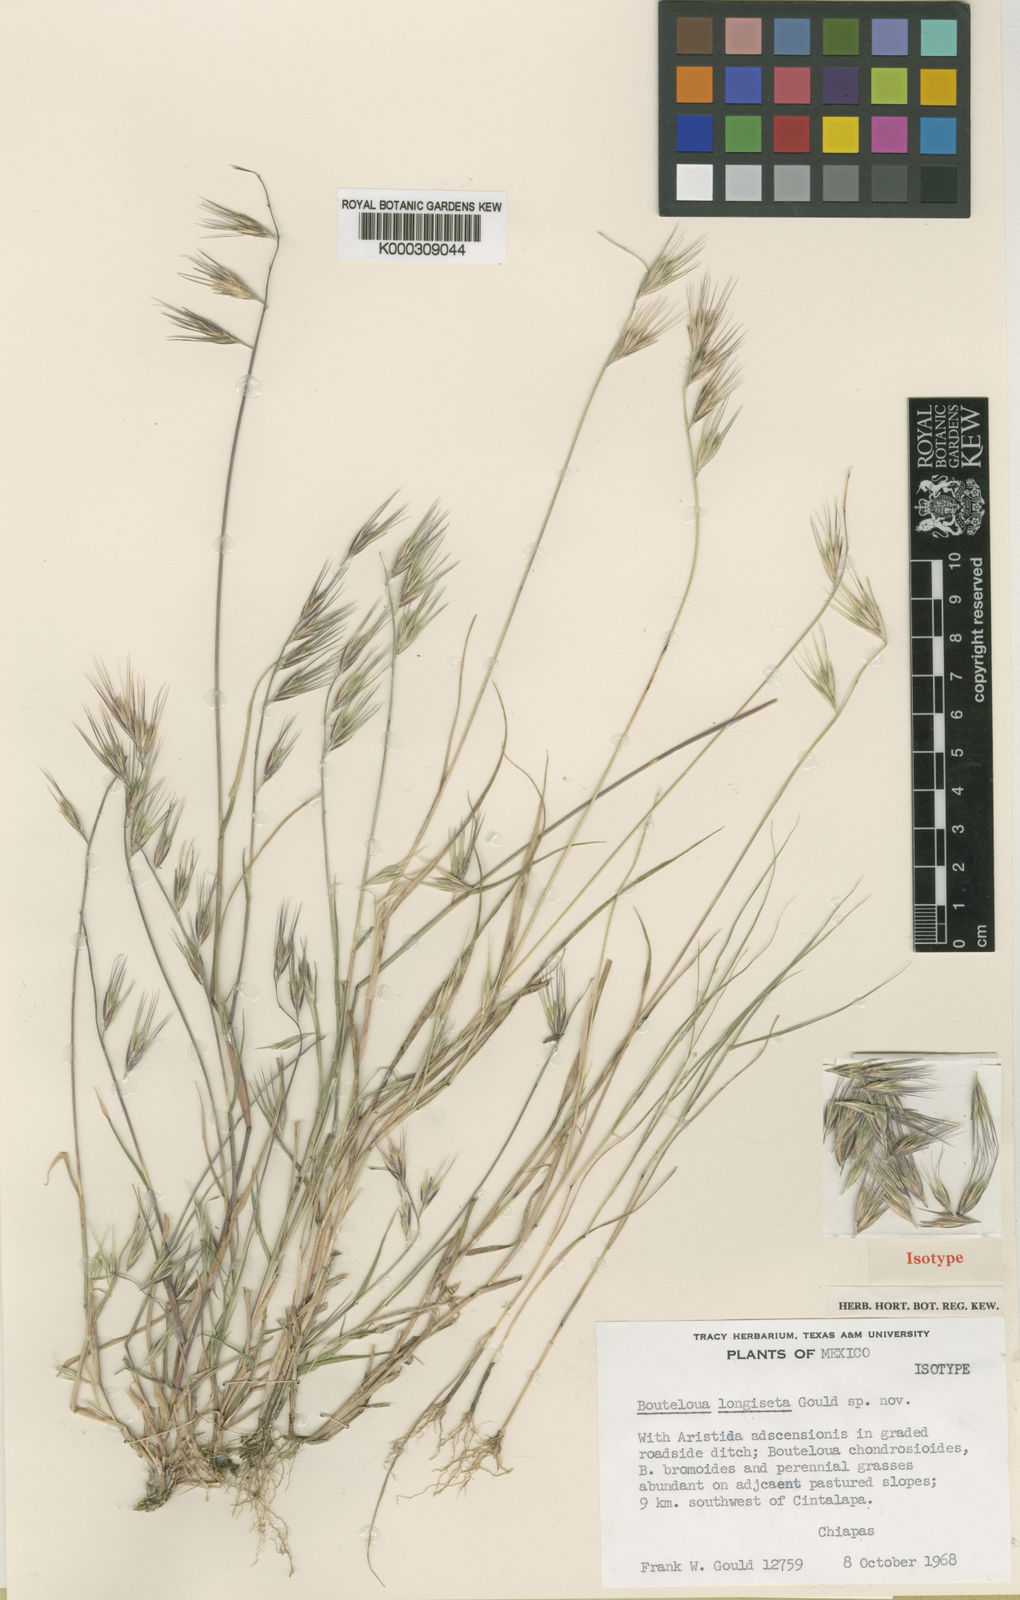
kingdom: Plantae
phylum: Tracheophyta
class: Liliopsida
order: Poales
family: Poaceae
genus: Bouteloua
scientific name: Bouteloua alamosana
